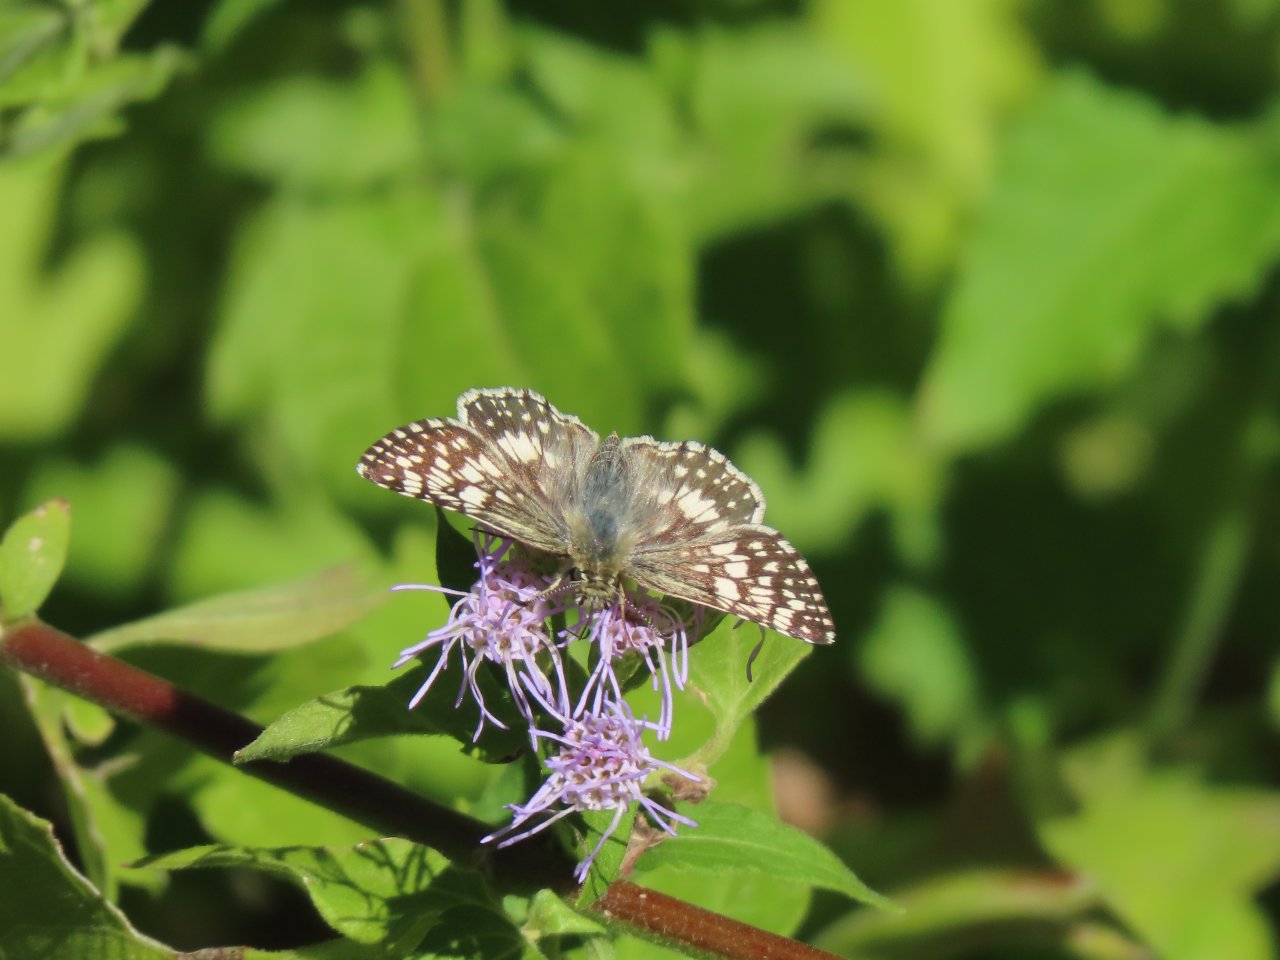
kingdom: Animalia
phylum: Arthropoda
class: Insecta
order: Lepidoptera
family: Hesperiidae
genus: Pyrgus
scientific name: Pyrgus communis
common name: White Checkered-Skipper
